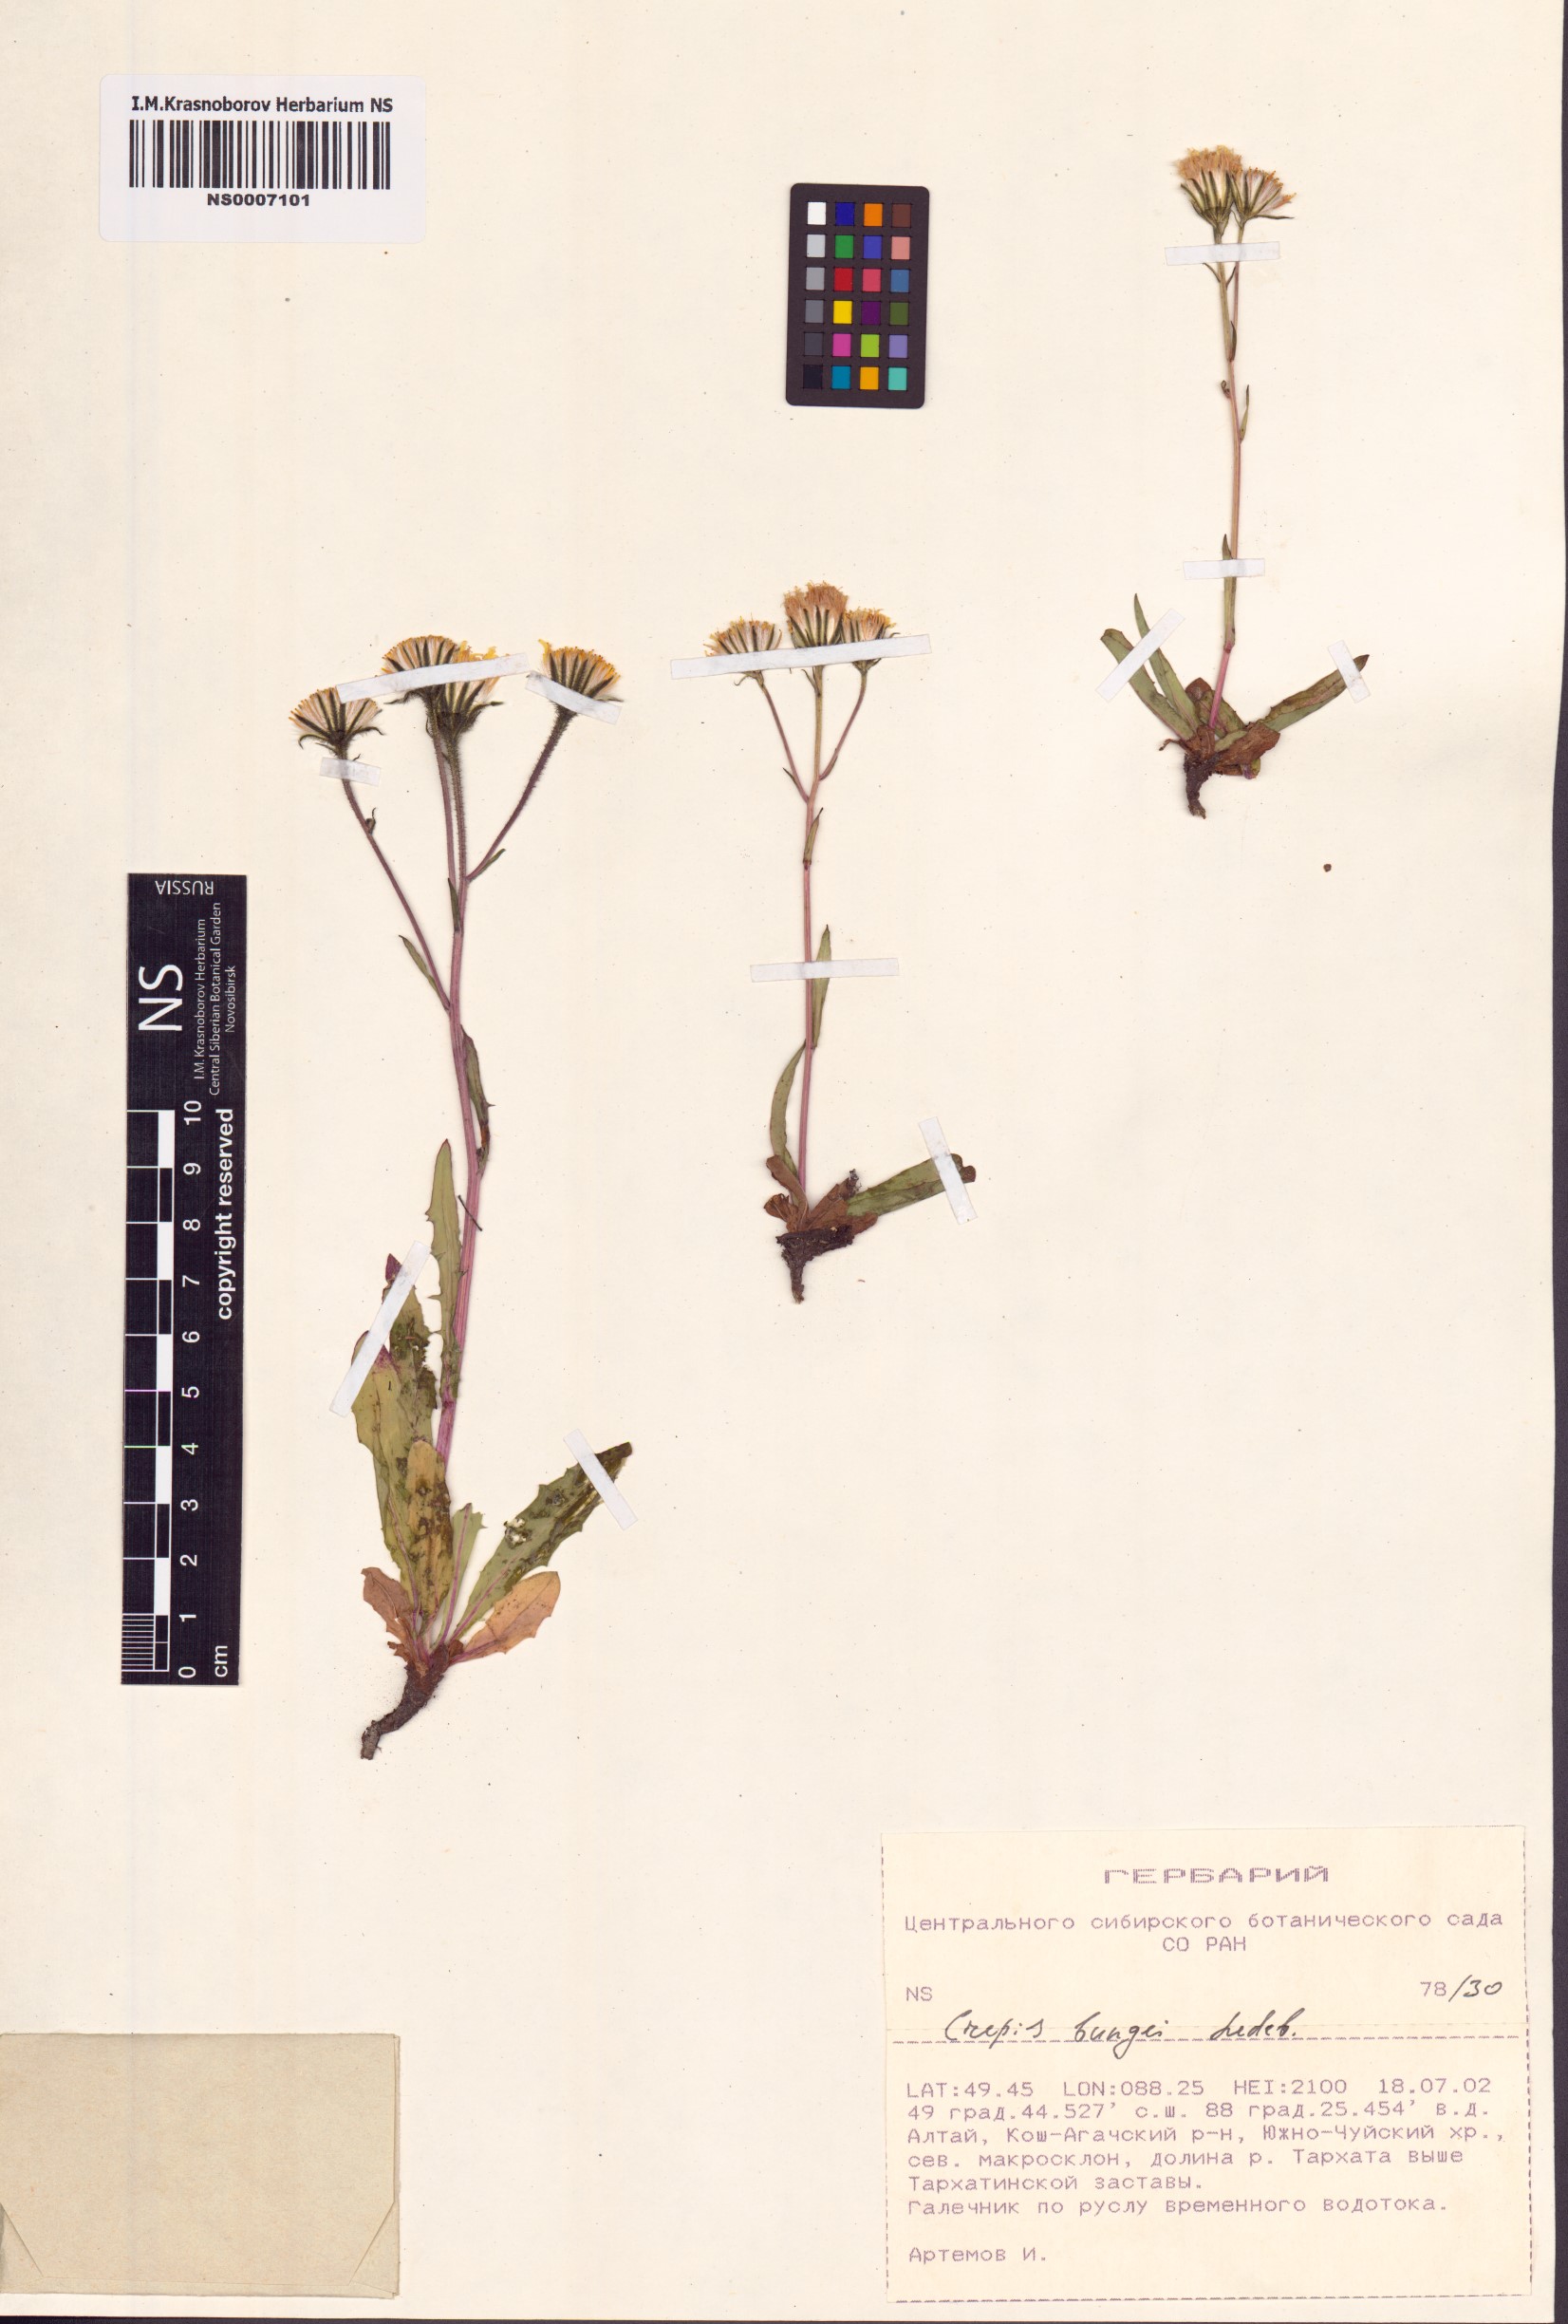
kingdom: Plantae
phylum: Tracheophyta
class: Magnoliopsida
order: Asterales
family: Asteraceae
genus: Crepis
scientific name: Crepis bungei
